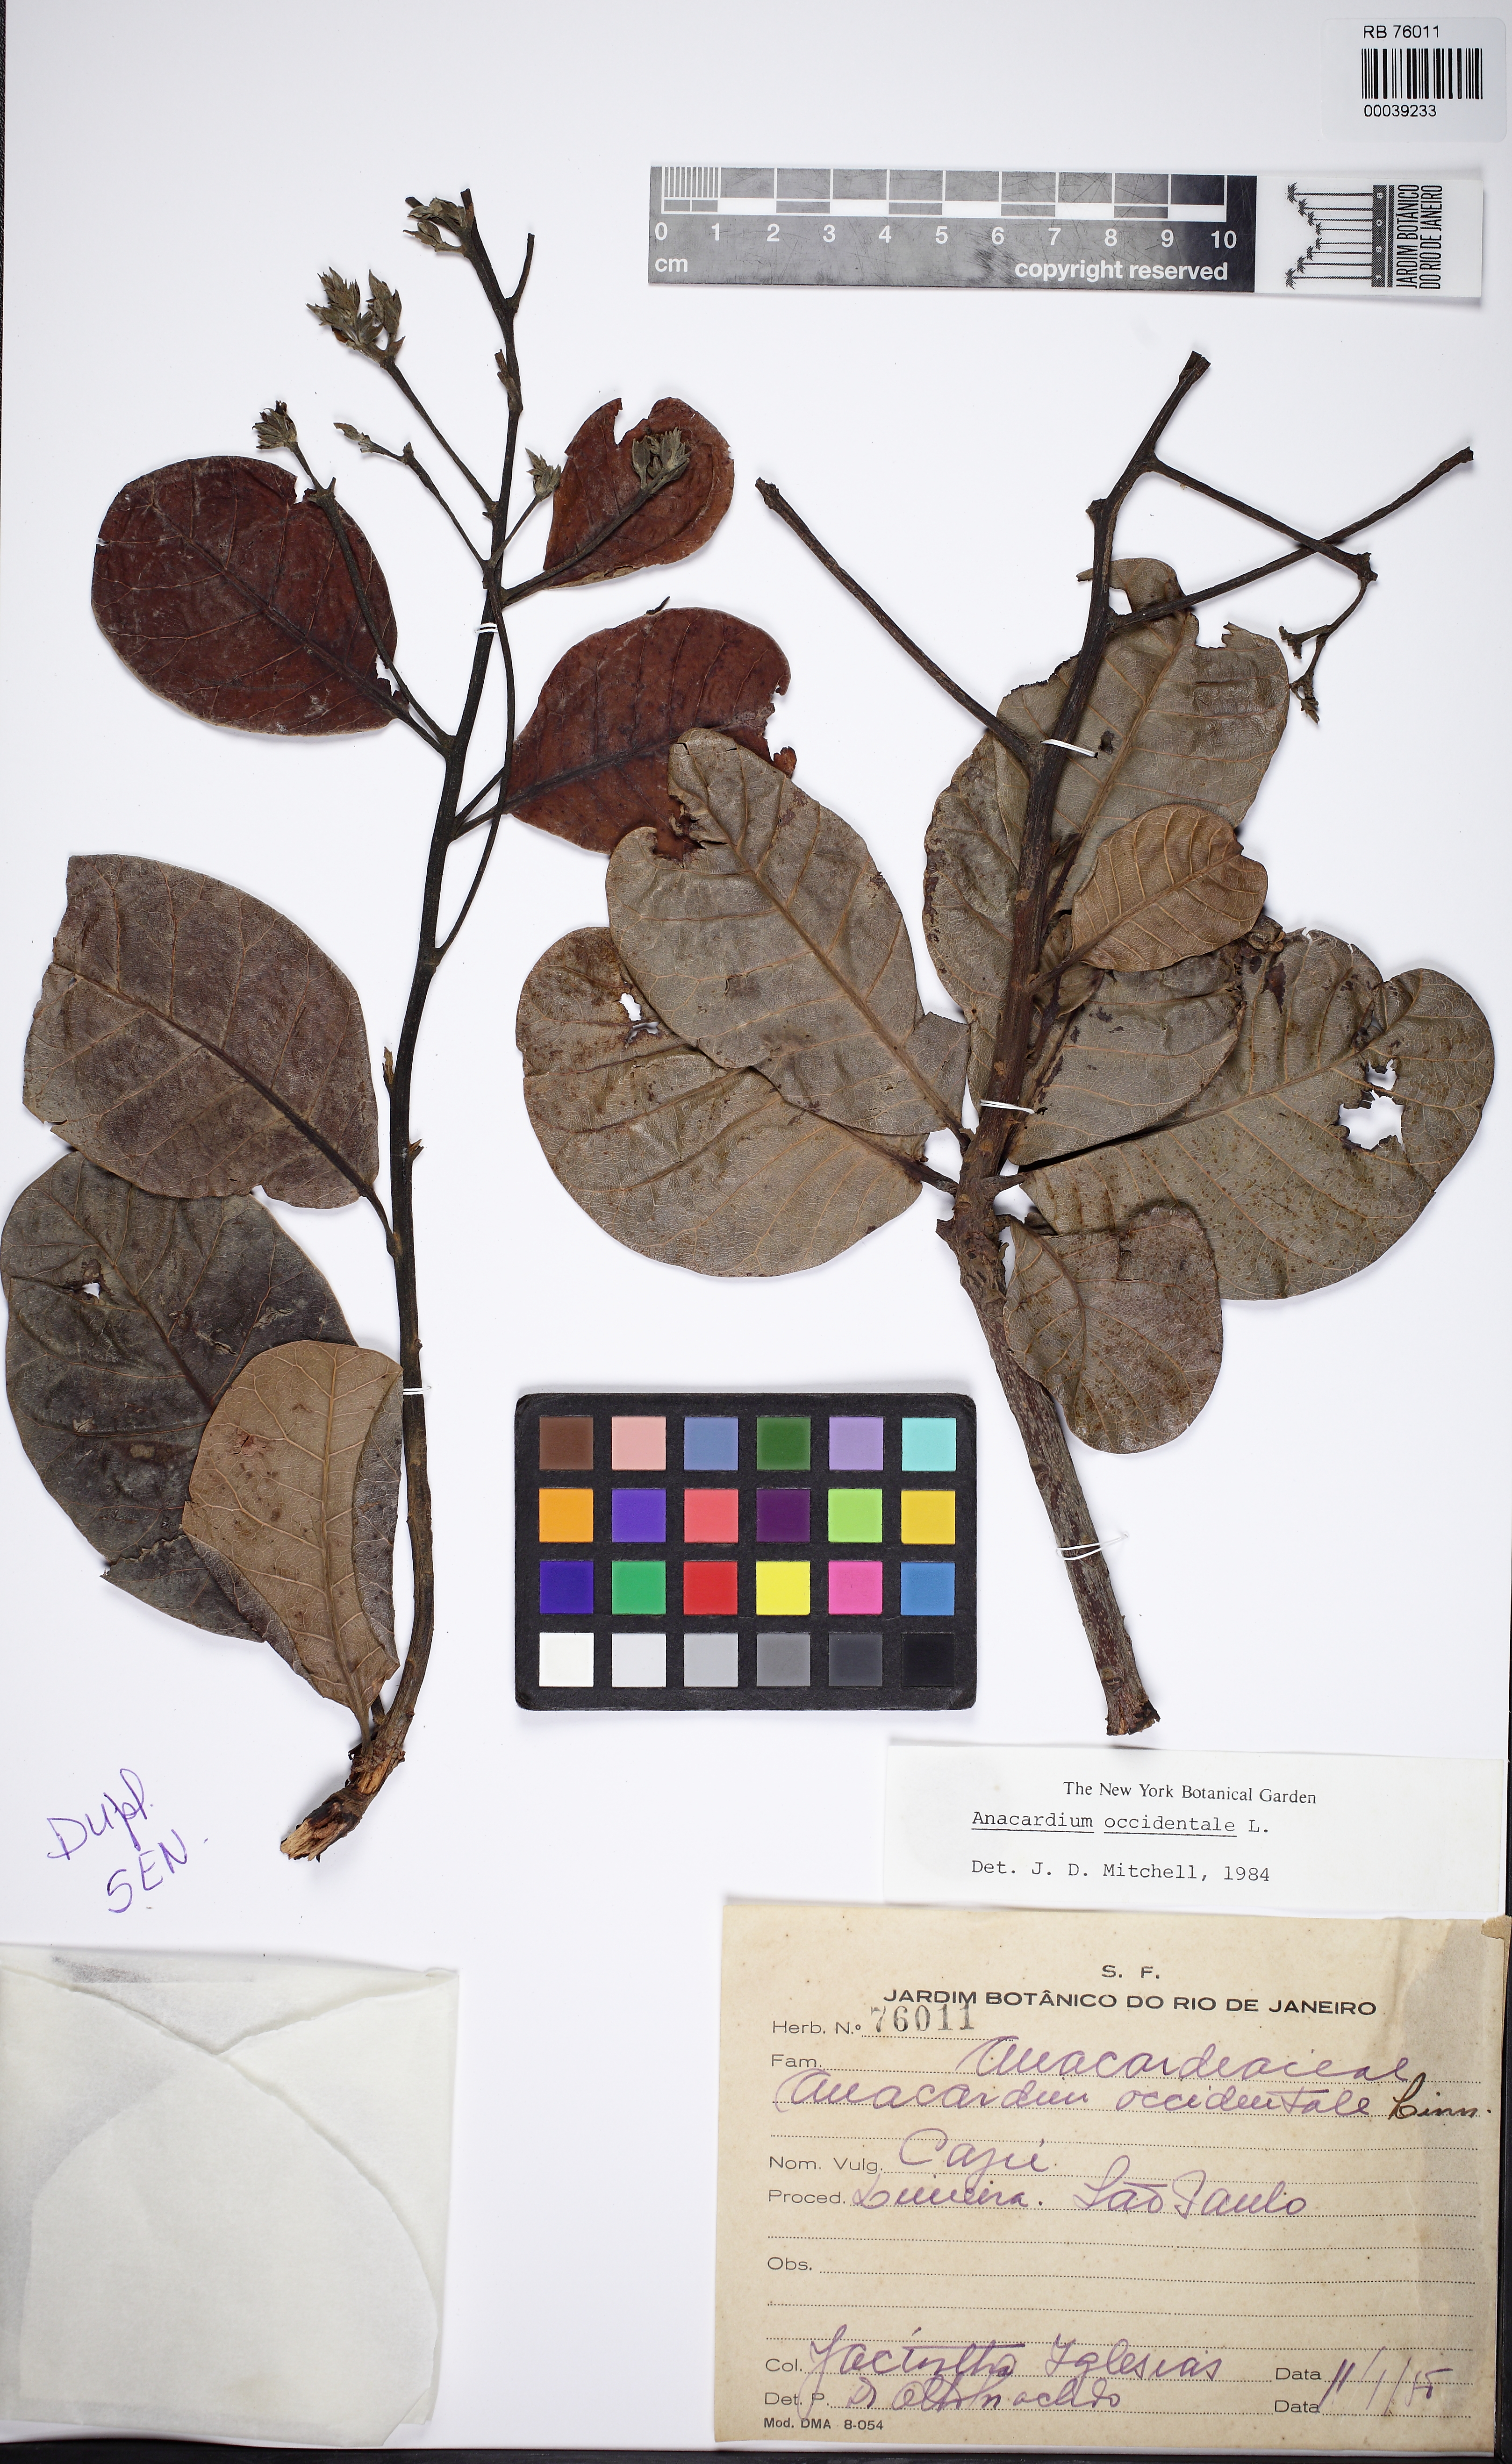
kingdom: Plantae
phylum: Tracheophyta
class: Magnoliopsida
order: Sapindales
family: Anacardiaceae
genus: Anacardium
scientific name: Anacardium occidentale
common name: Cashew
